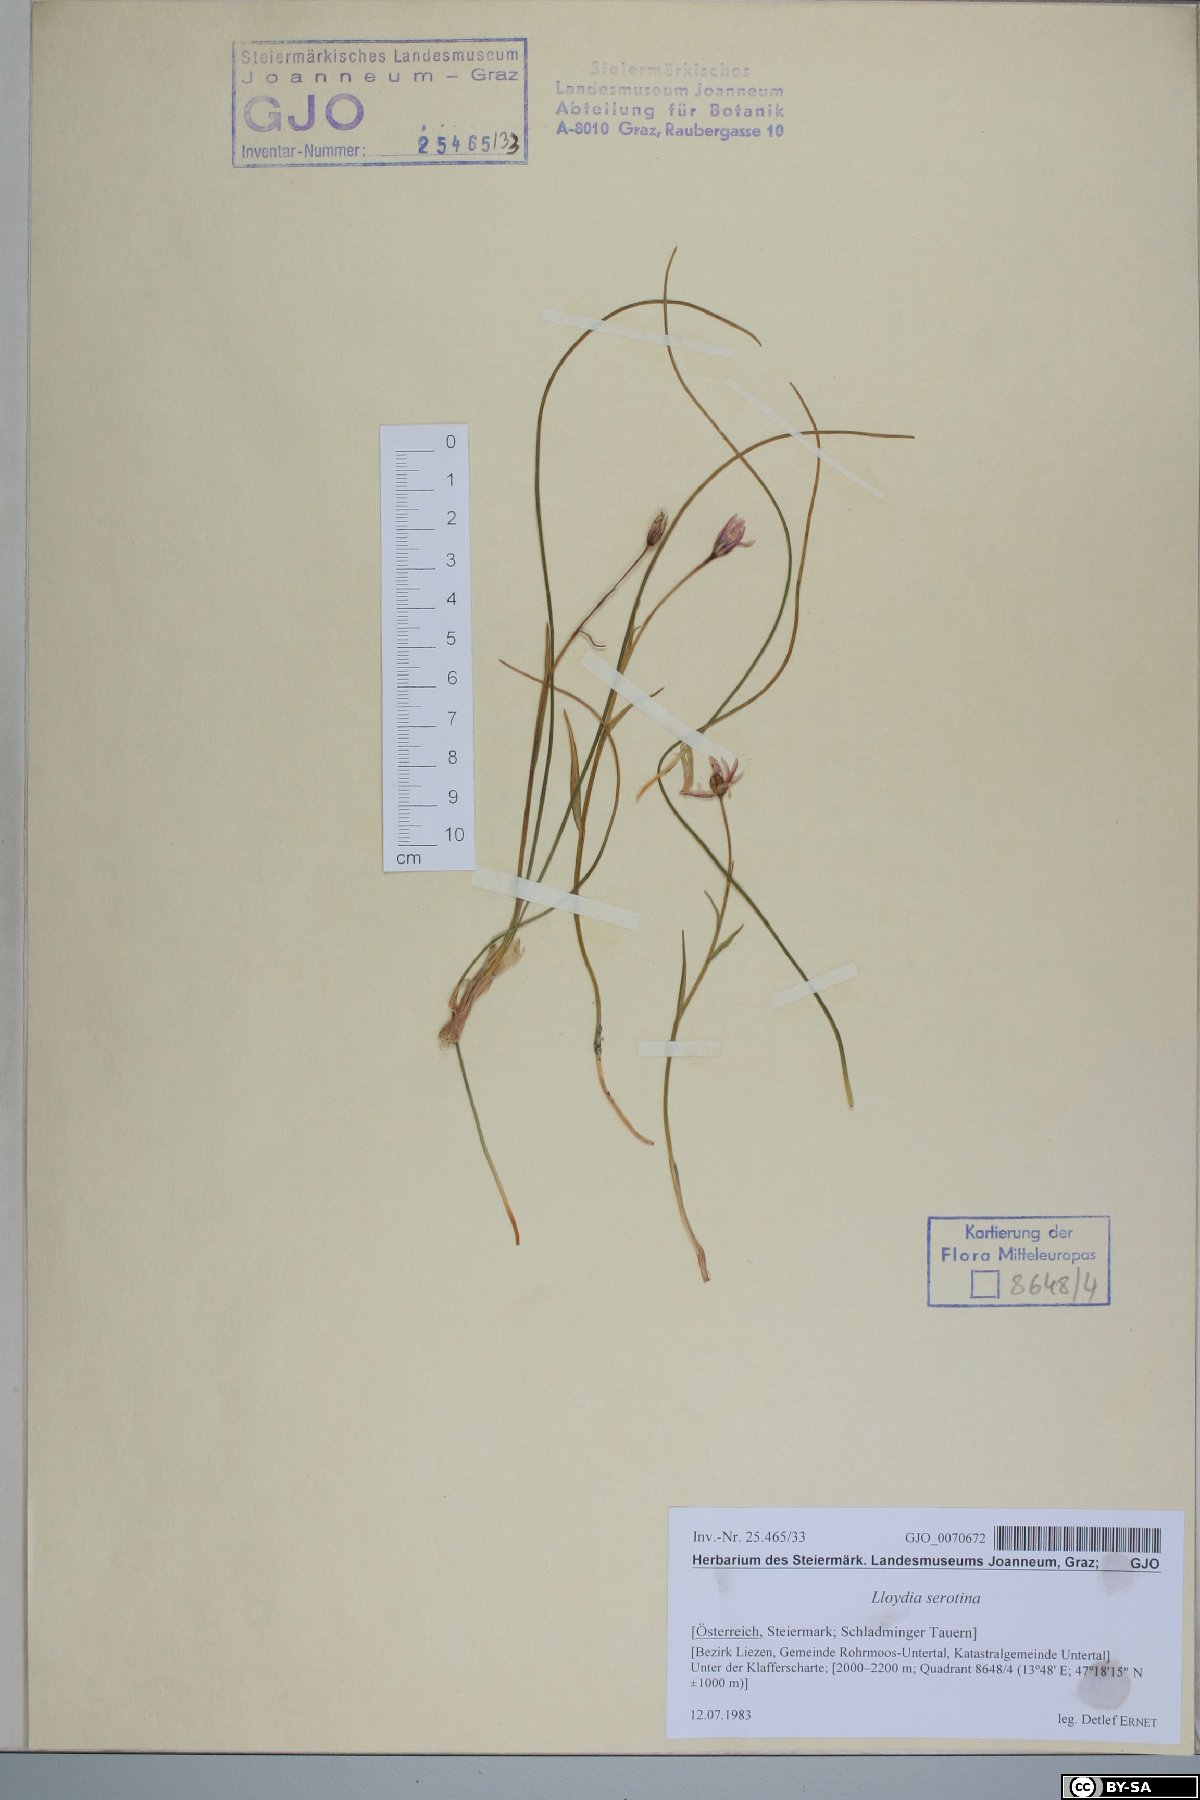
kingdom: Plantae
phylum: Tracheophyta
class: Liliopsida
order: Liliales
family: Liliaceae
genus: Gagea
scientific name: Gagea serotina
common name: Snowdon lily
